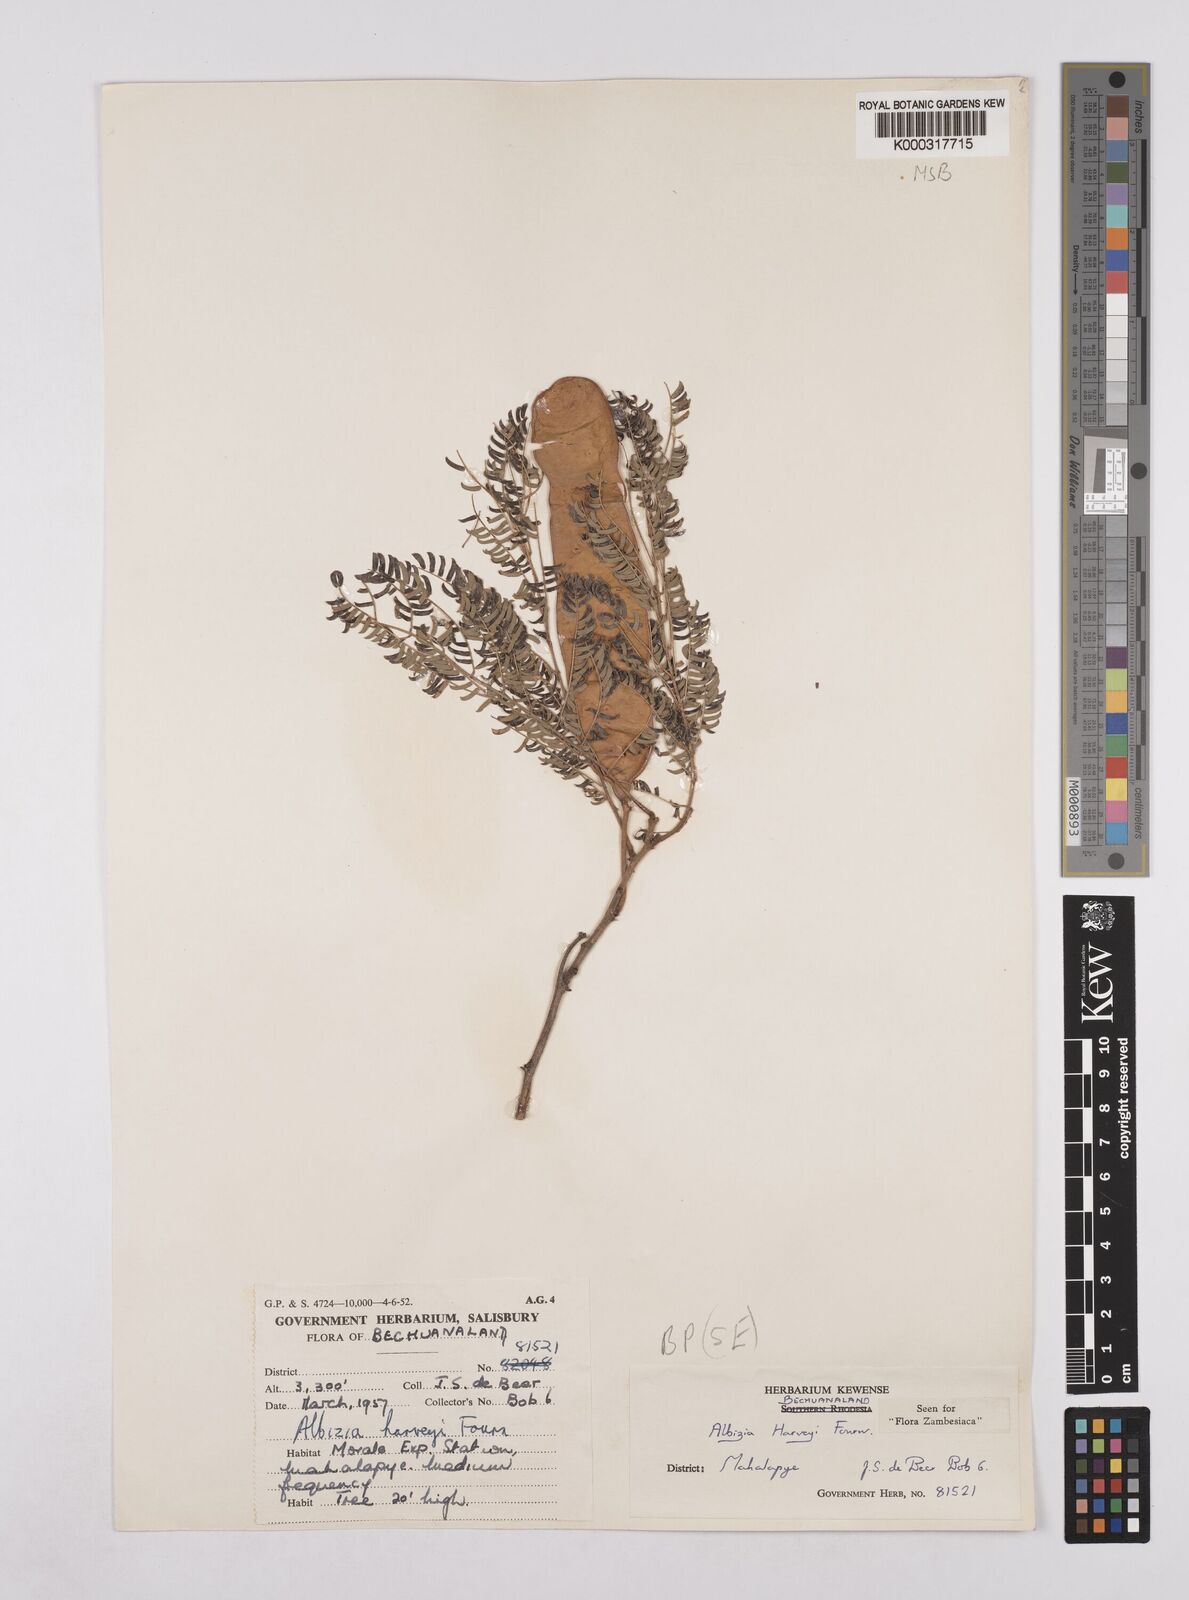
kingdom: Plantae
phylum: Tracheophyta
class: Magnoliopsida
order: Fabales
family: Fabaceae
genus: Albizia
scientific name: Albizia harveyi
